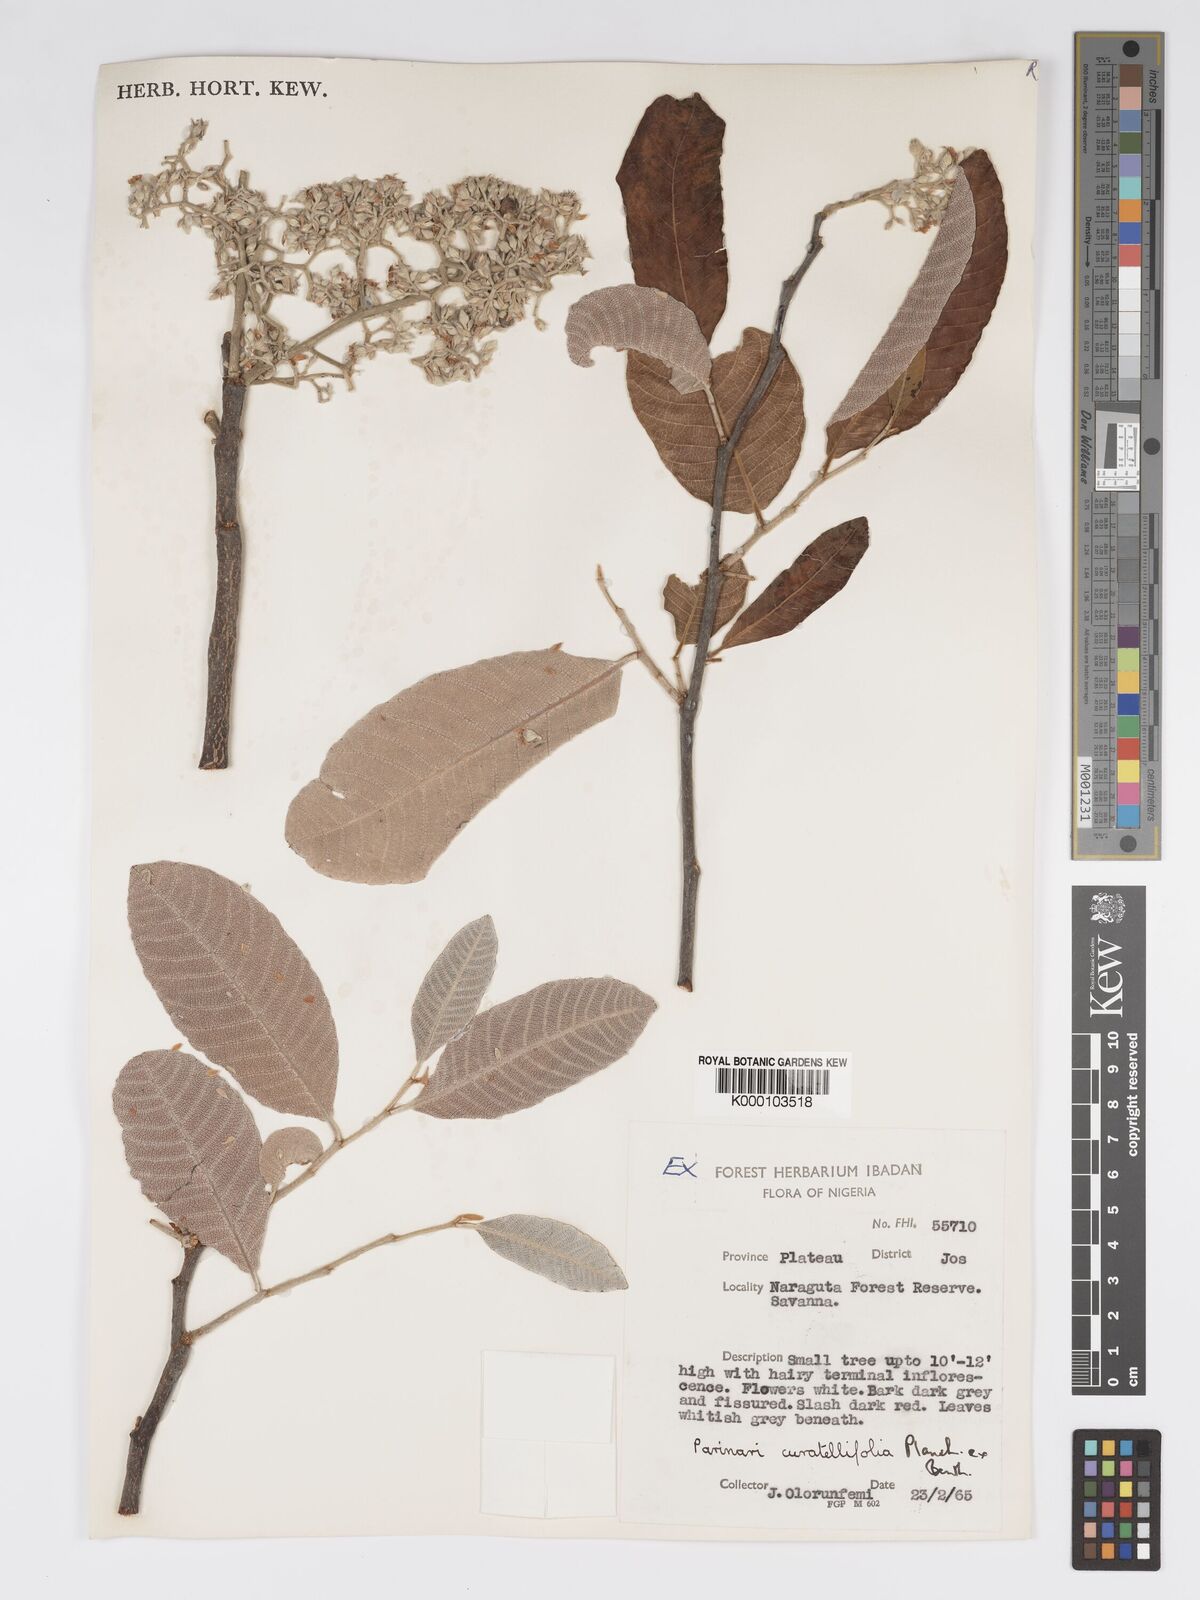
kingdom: Plantae
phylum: Tracheophyta
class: Magnoliopsida
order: Malpighiales
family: Chrysobalanaceae
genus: Parinari
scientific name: Parinari curatellifolia
